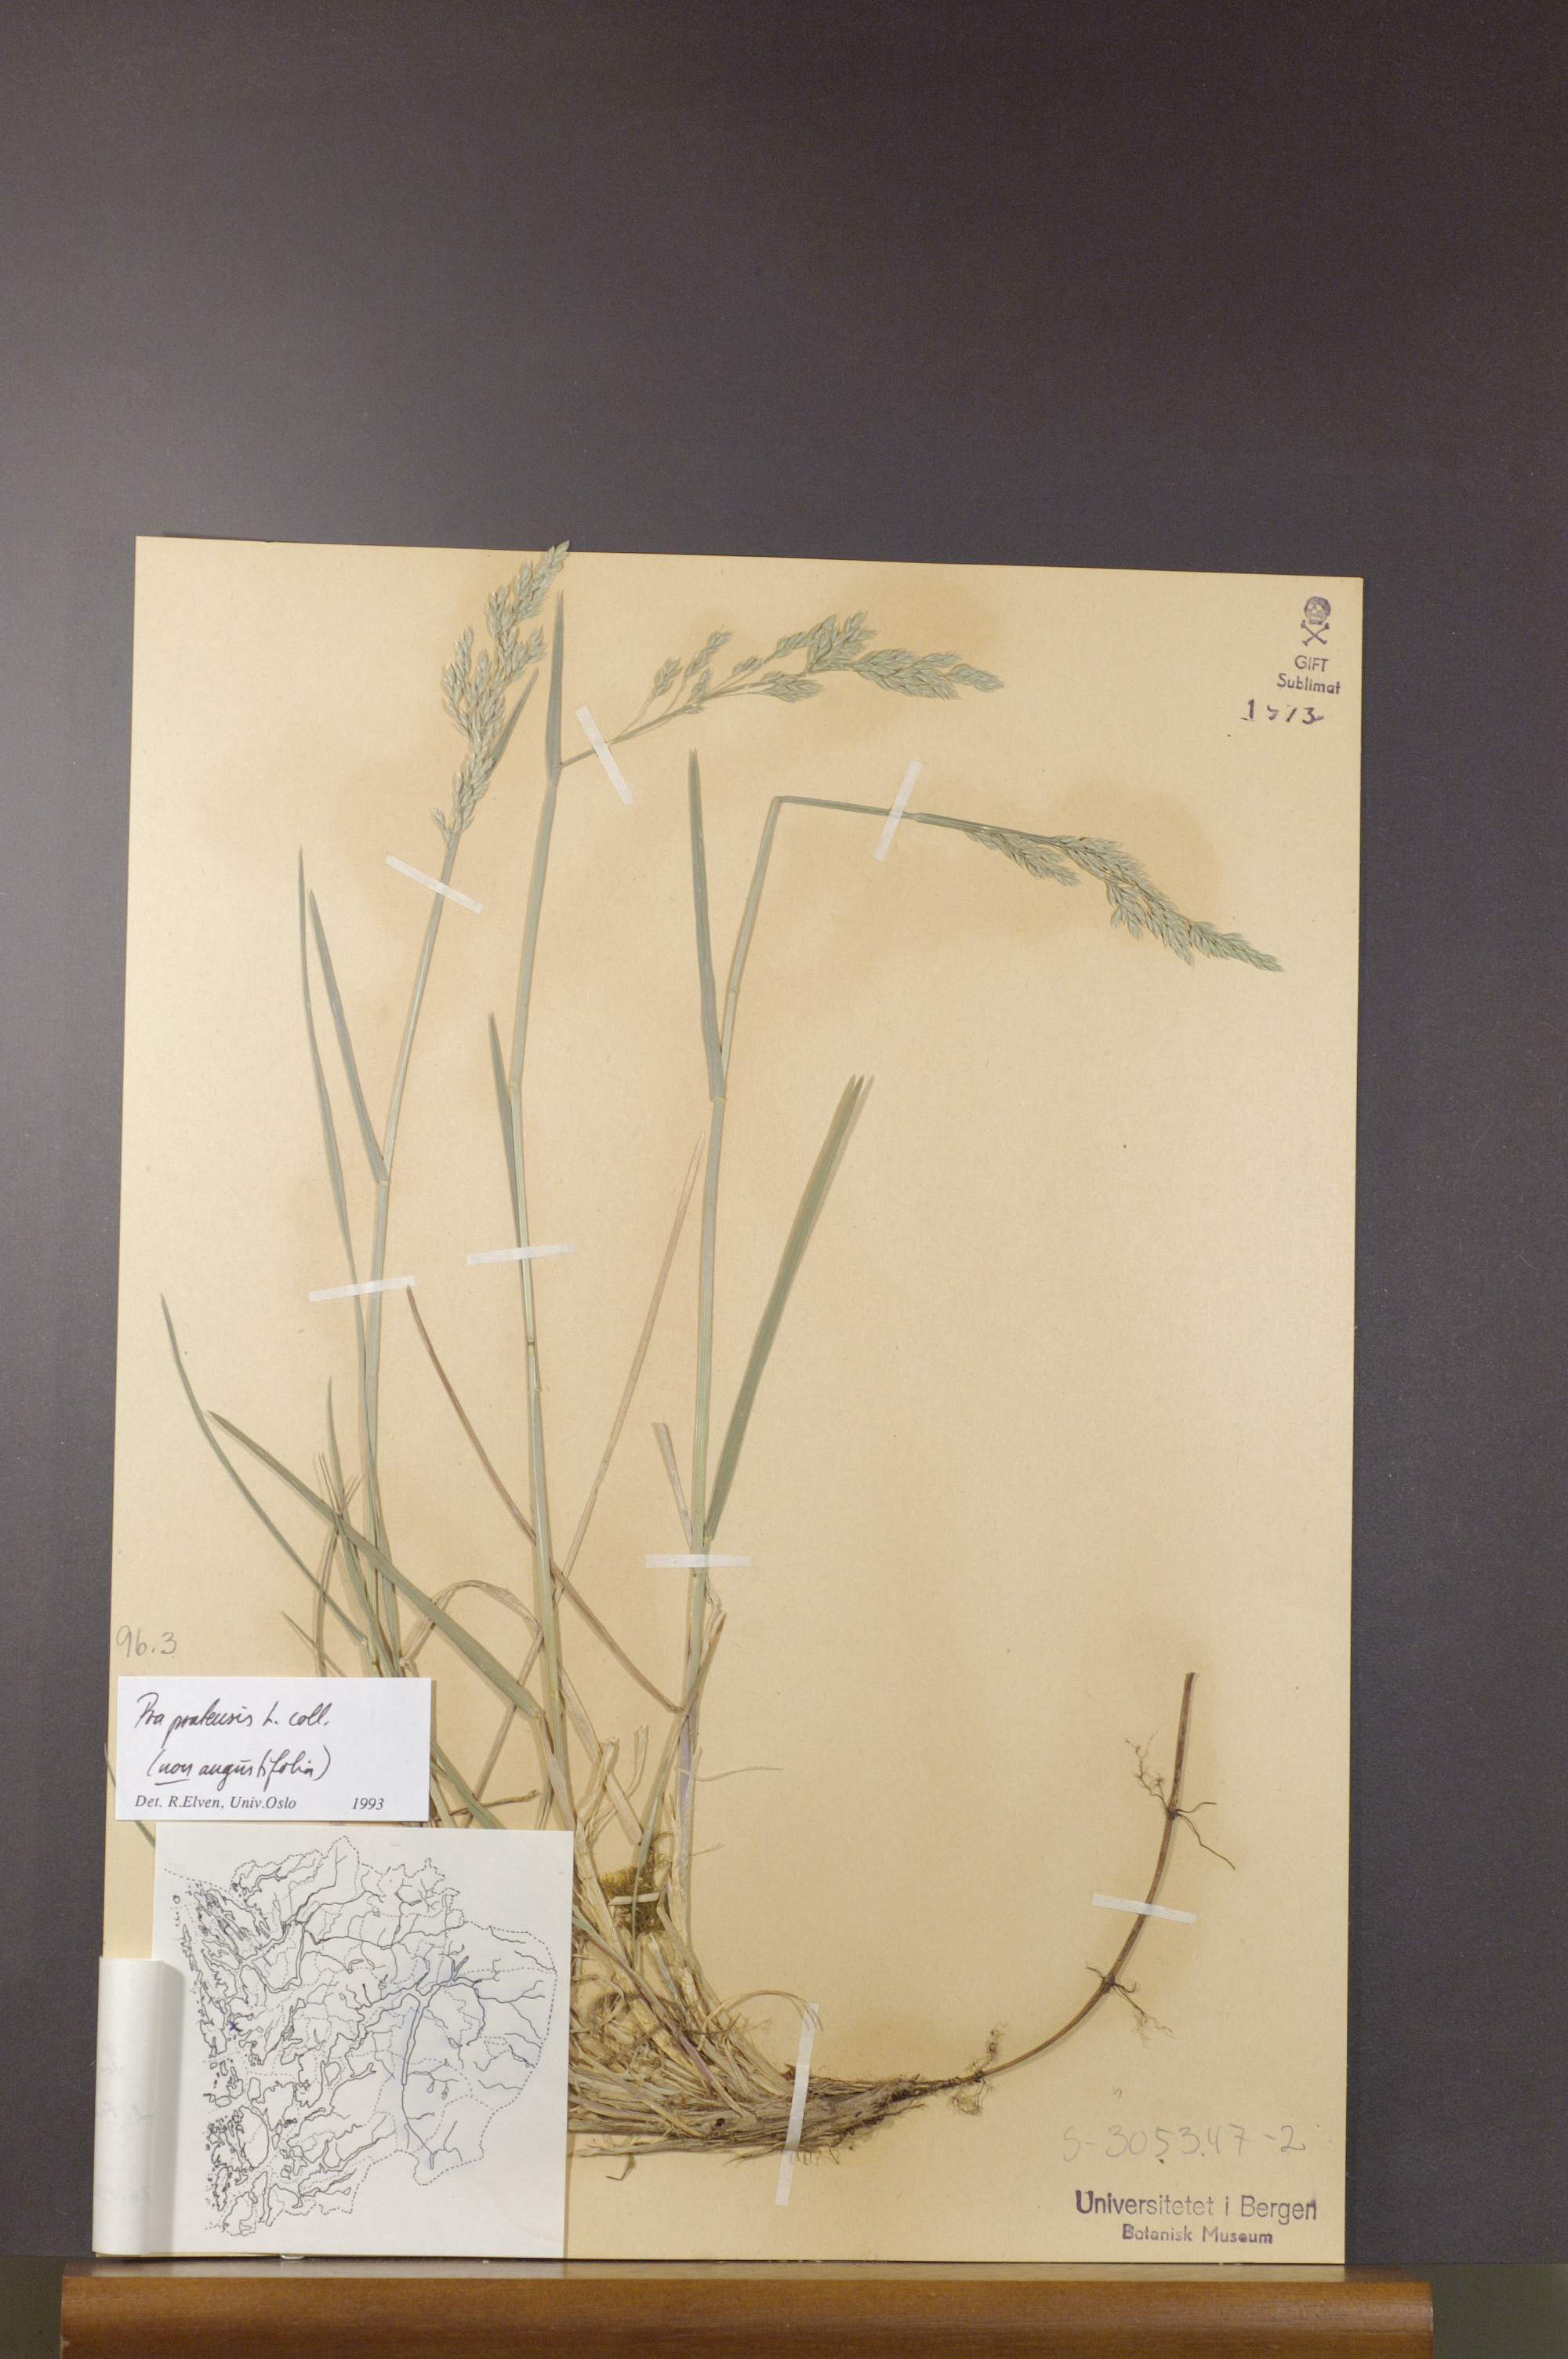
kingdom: Plantae
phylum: Tracheophyta
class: Liliopsida
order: Poales
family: Poaceae
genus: Poa
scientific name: Poa pratensis
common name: Kentucky bluegrass
